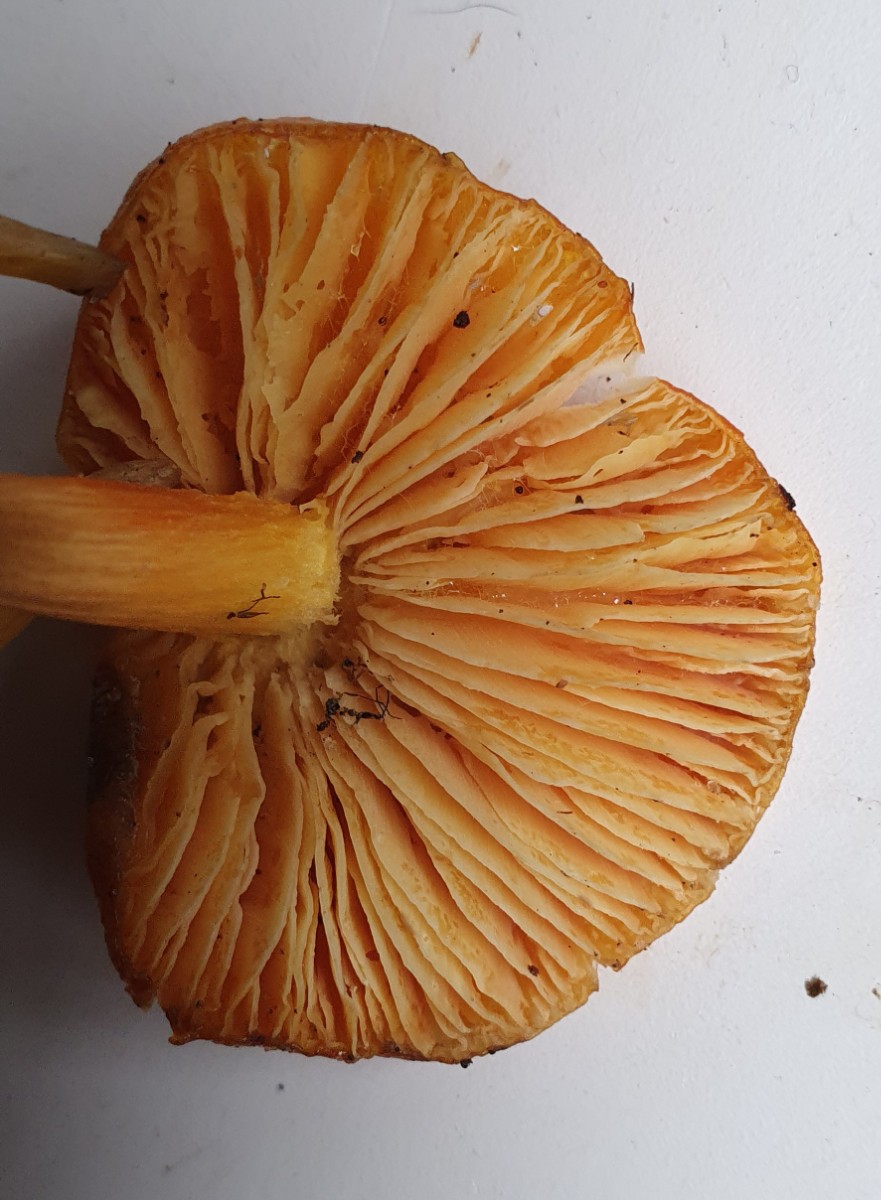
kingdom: Fungi
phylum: Basidiomycota
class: Agaricomycetes
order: Agaricales
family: Hygrophoraceae
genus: Hygrocybe
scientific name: Hygrocybe
